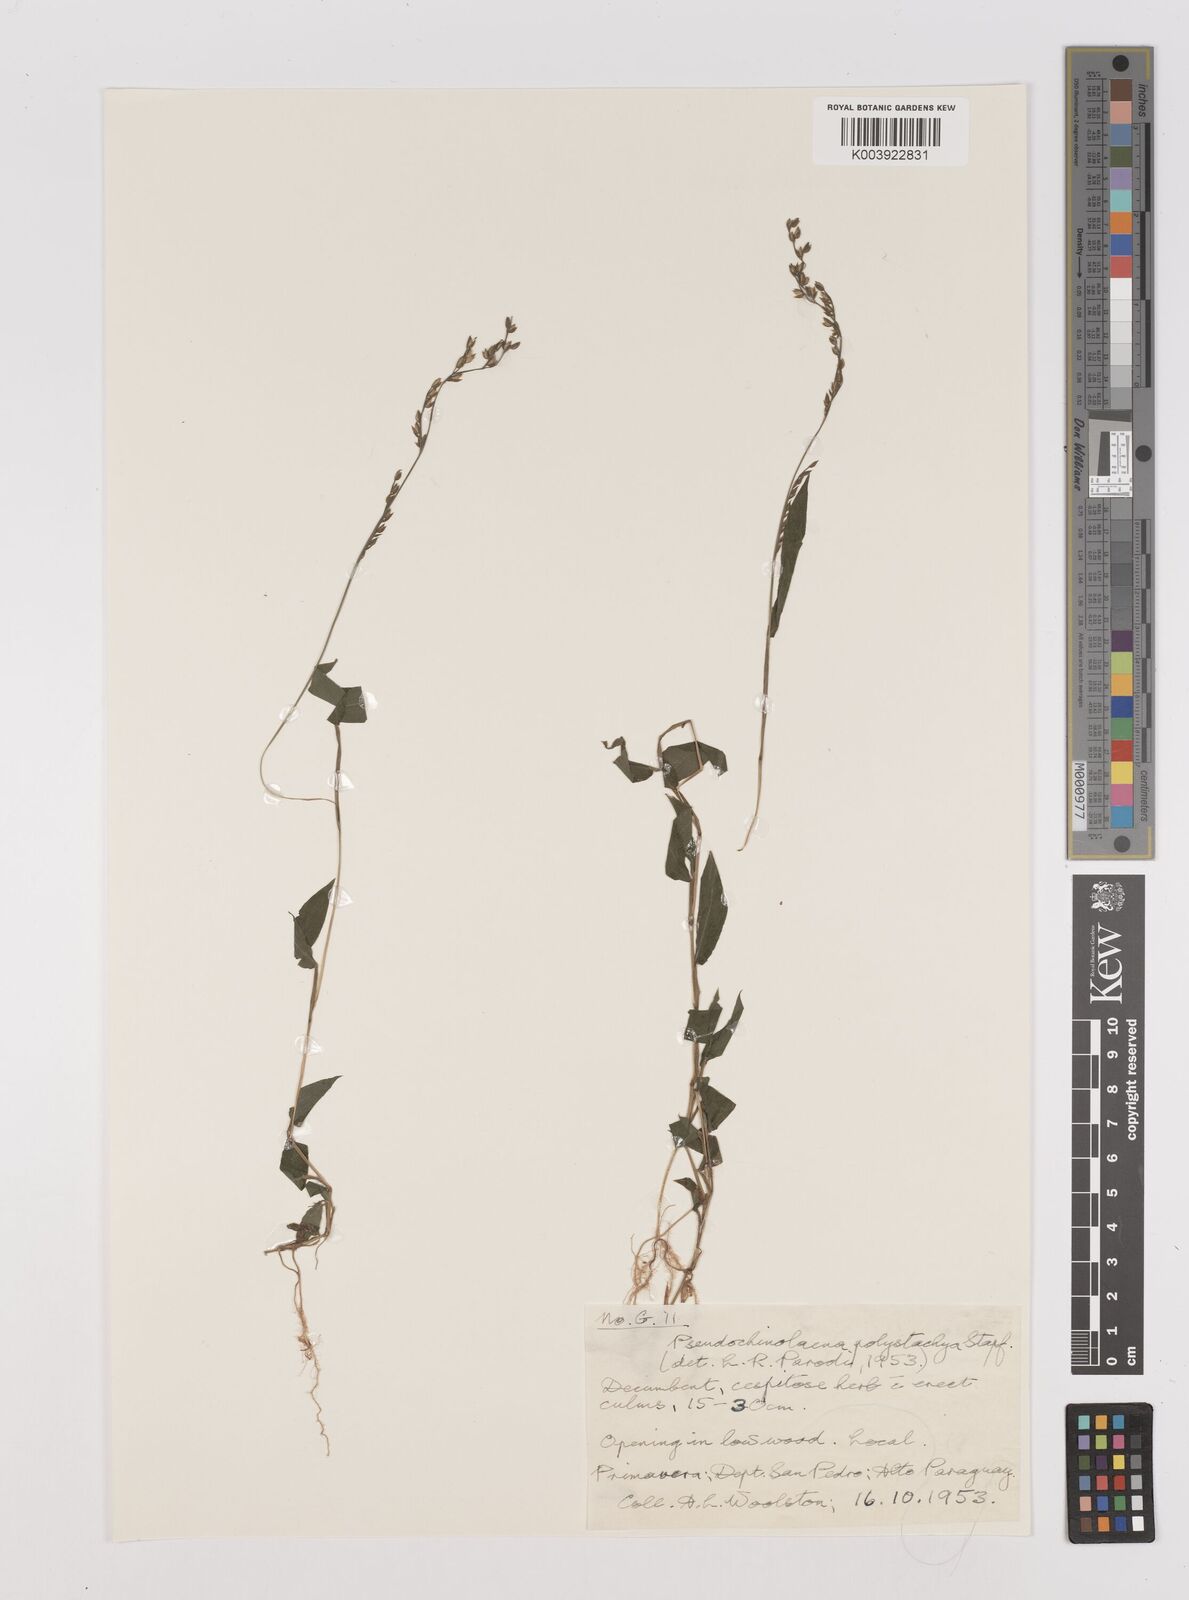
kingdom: Plantae
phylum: Tracheophyta
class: Liliopsida
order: Poales
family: Poaceae
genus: Pseudechinolaena
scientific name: Pseudechinolaena polystachya
